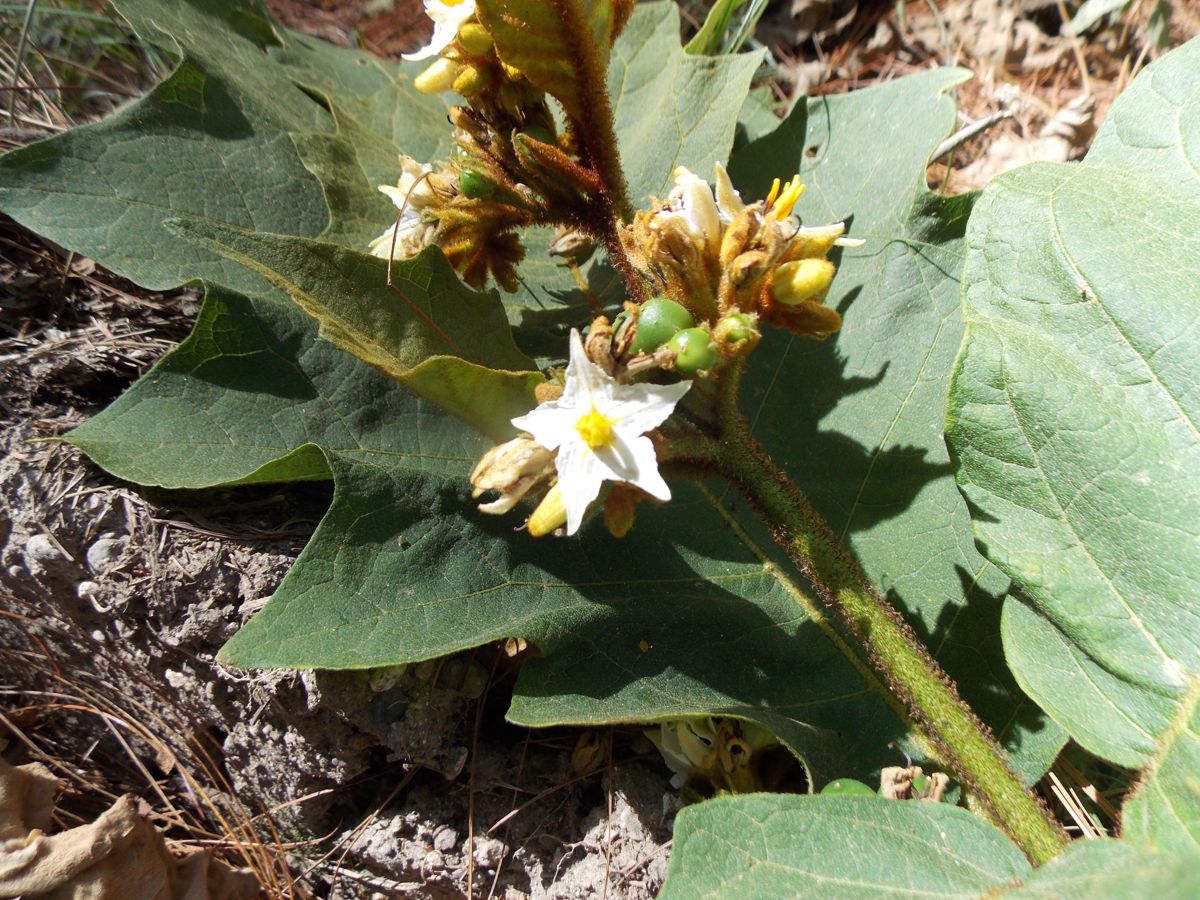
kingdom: Plantae
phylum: Tracheophyta
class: Magnoliopsida
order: Solanales
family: Solanaceae
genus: Solanum
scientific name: Solanum chrysotrichum
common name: Nightshade
